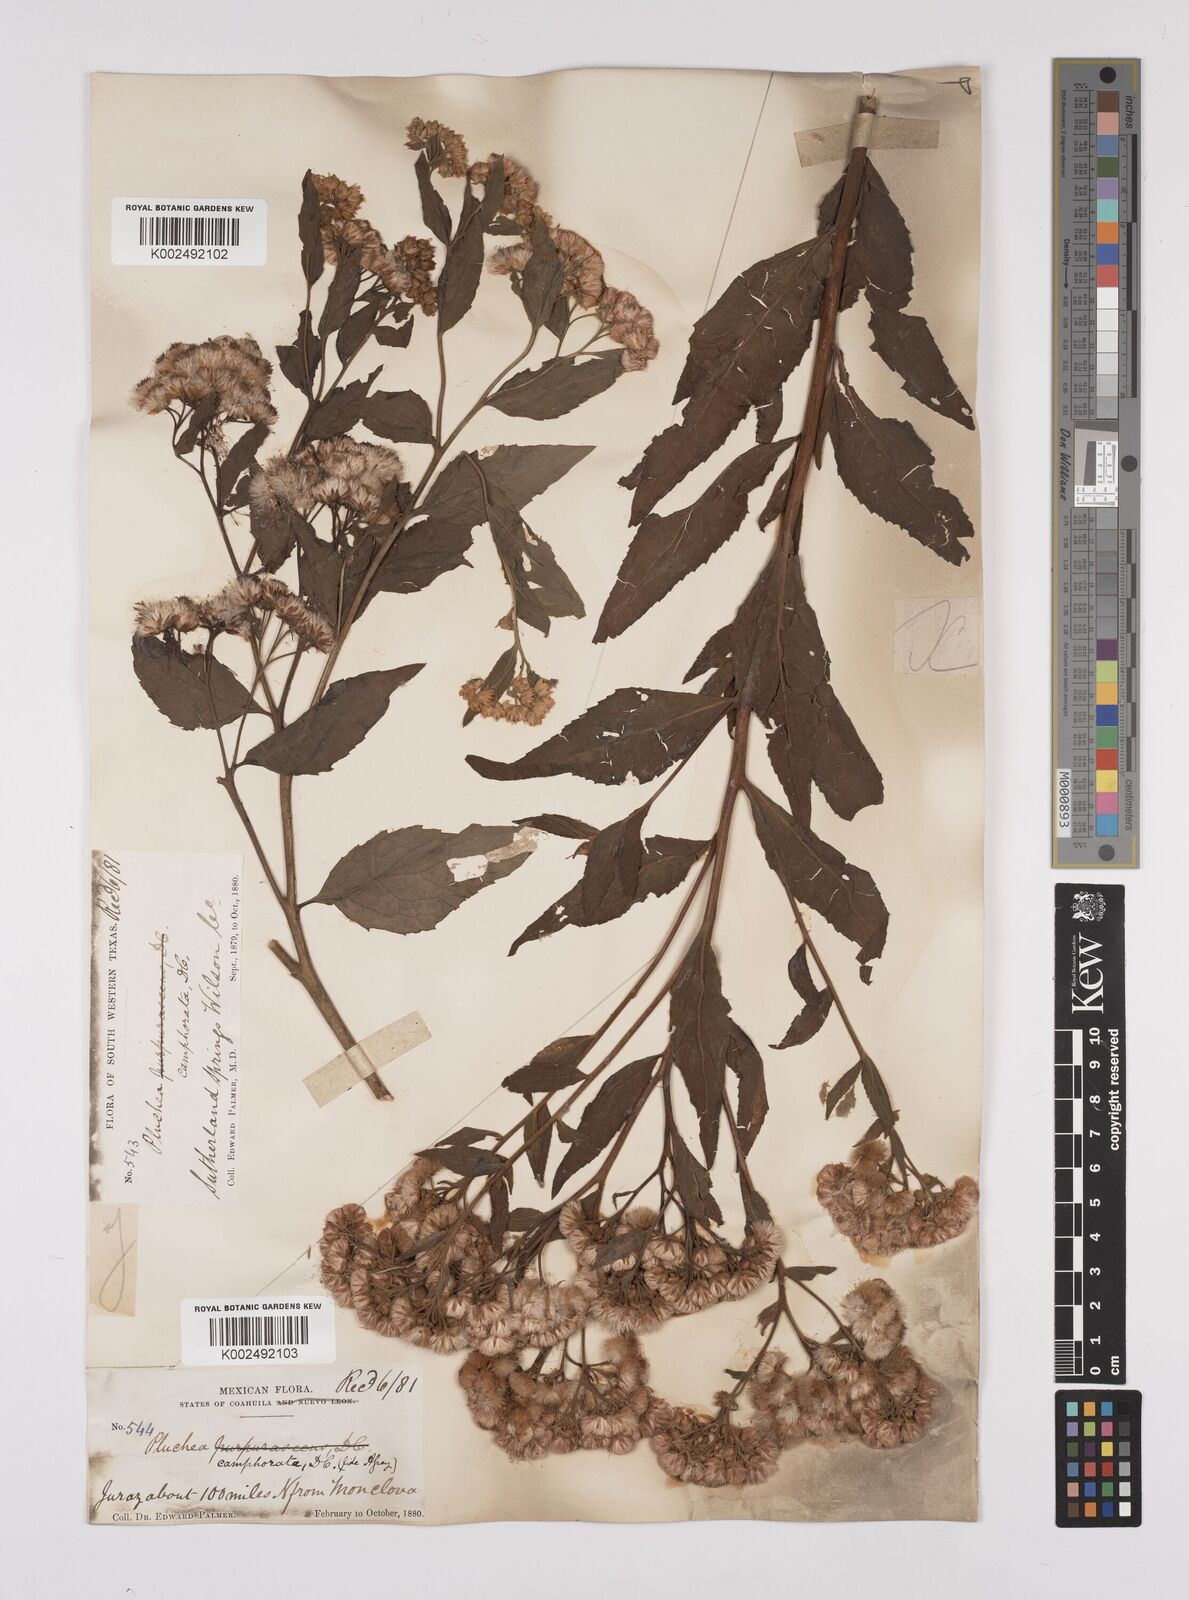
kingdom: Plantae
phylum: Tracheophyta
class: Magnoliopsida
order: Asterales
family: Asteraceae
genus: Pluchea
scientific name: Pluchea camphorata
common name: Camphor pluchea
